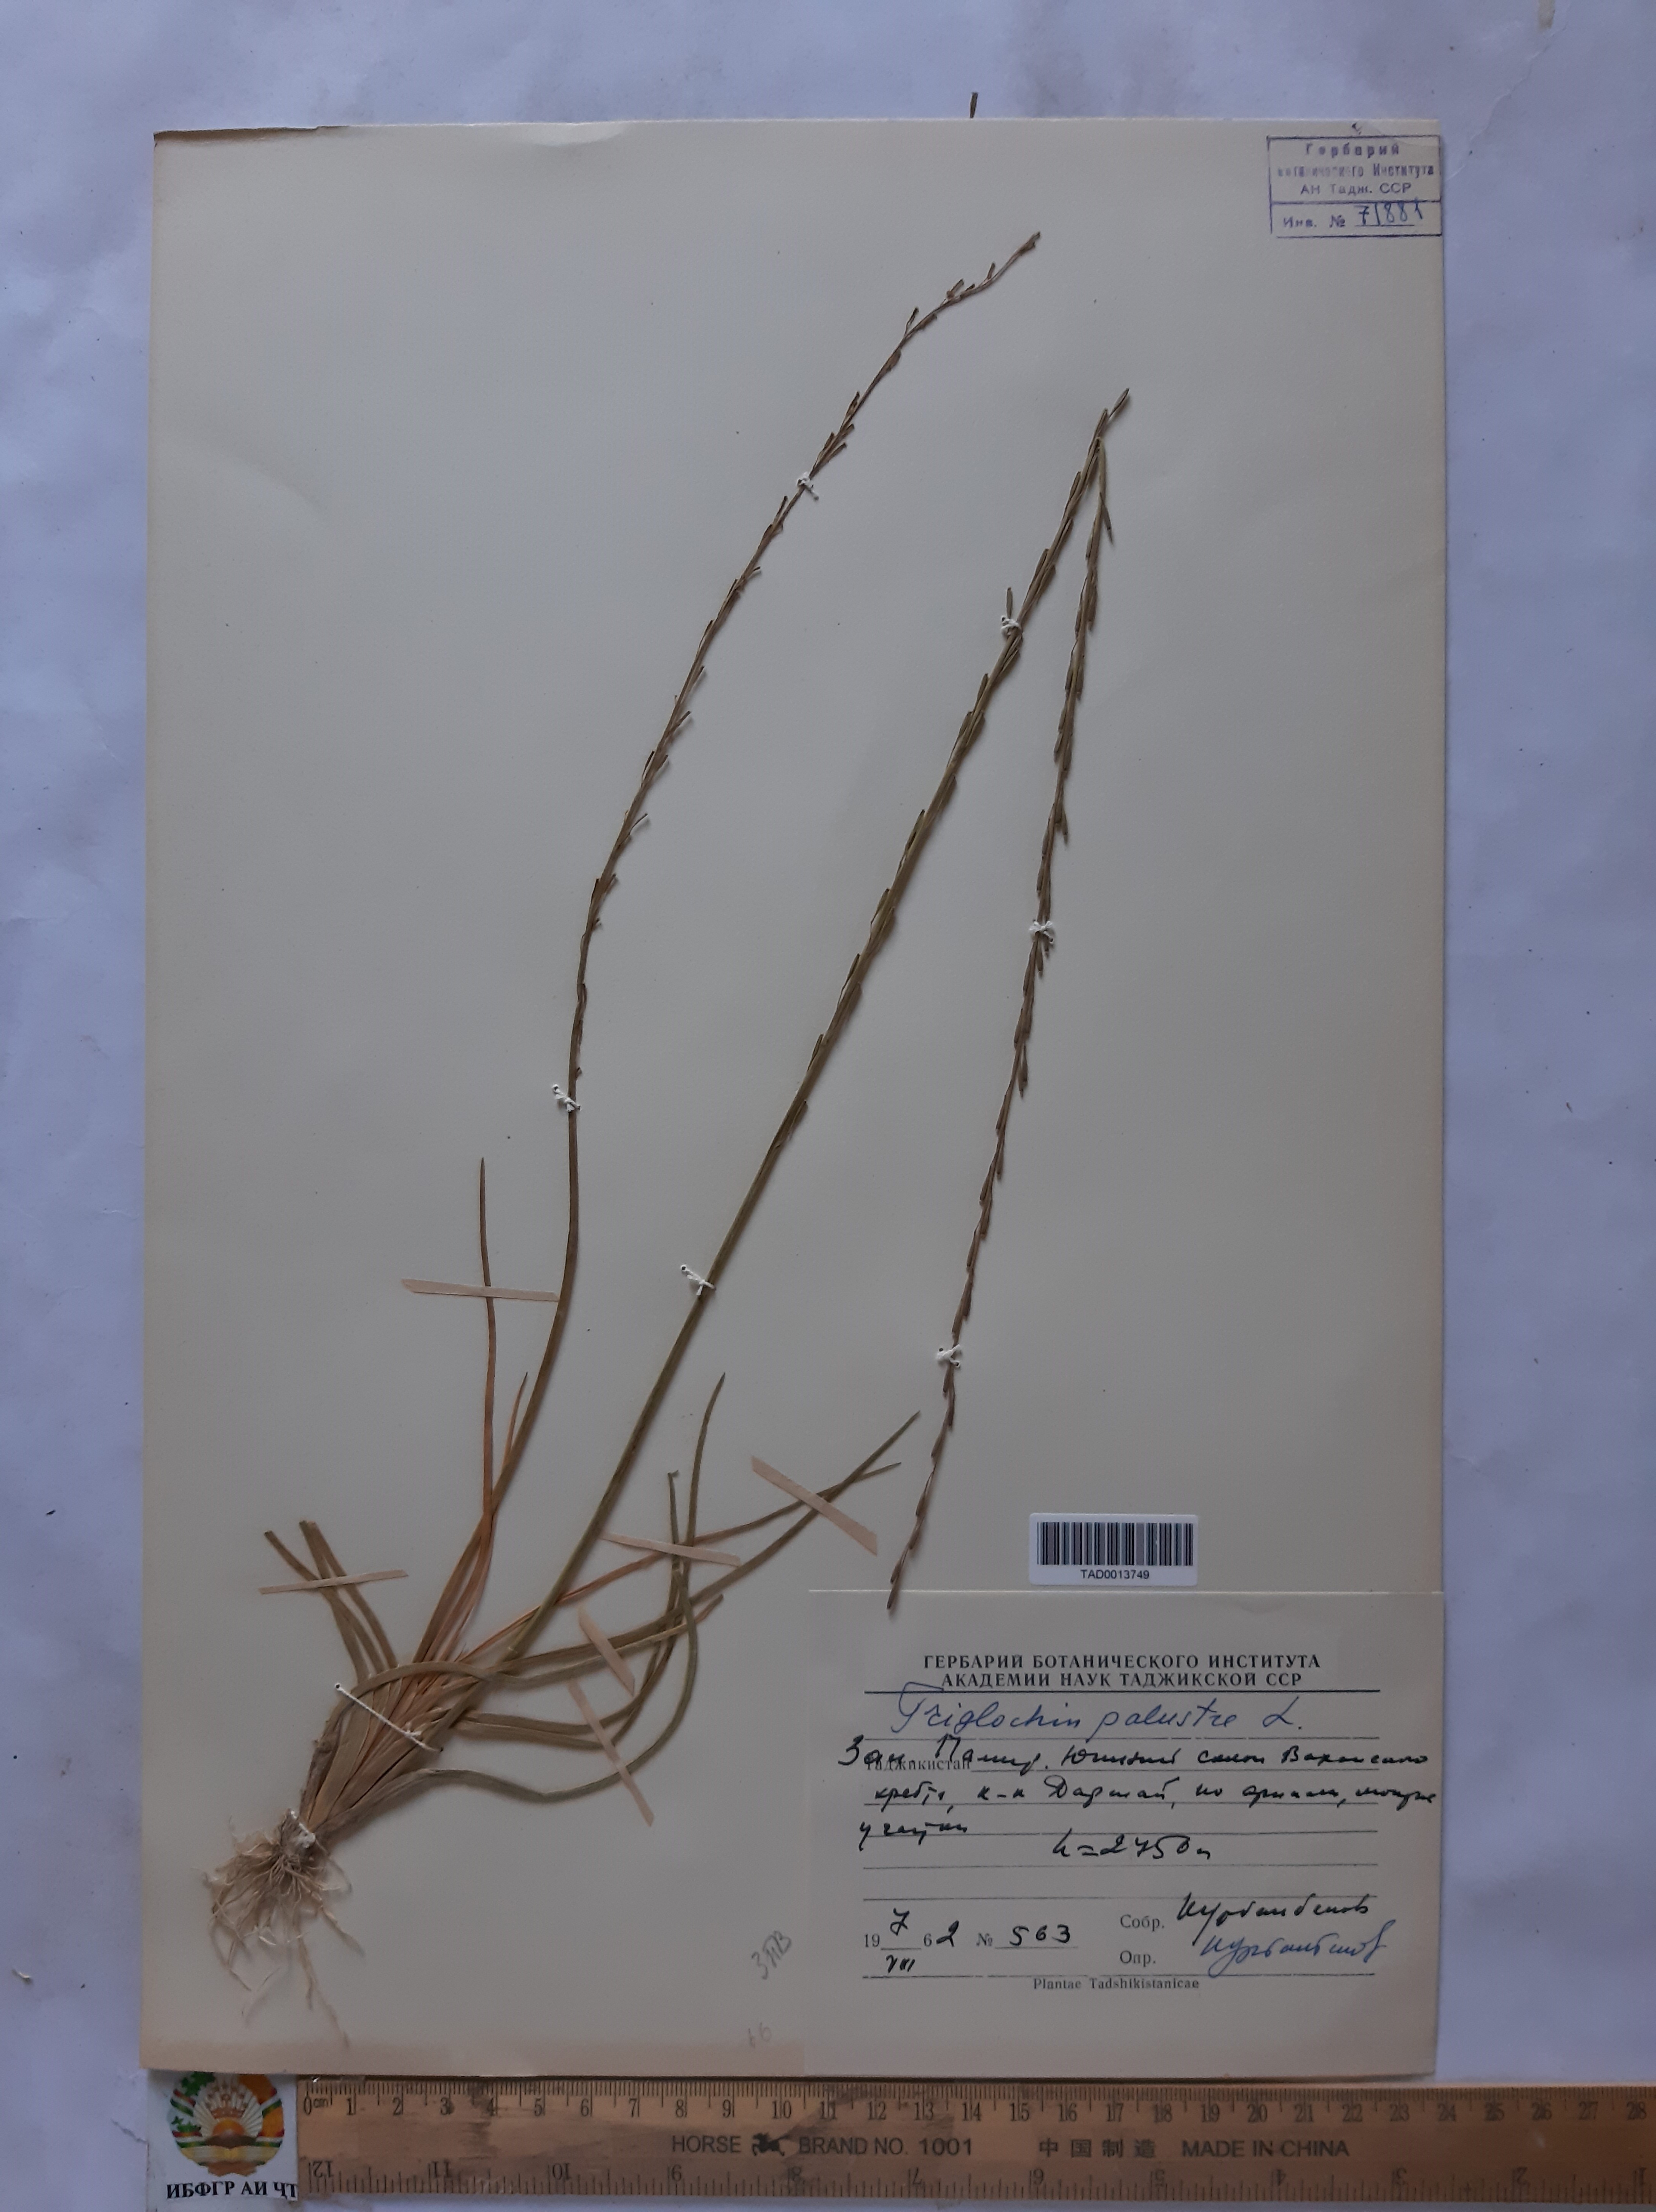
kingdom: Plantae
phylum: Tracheophyta
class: Liliopsida
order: Alismatales
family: Juncaginaceae
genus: Triglochin
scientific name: Triglochin palustris
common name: Marsh arrowgrass
